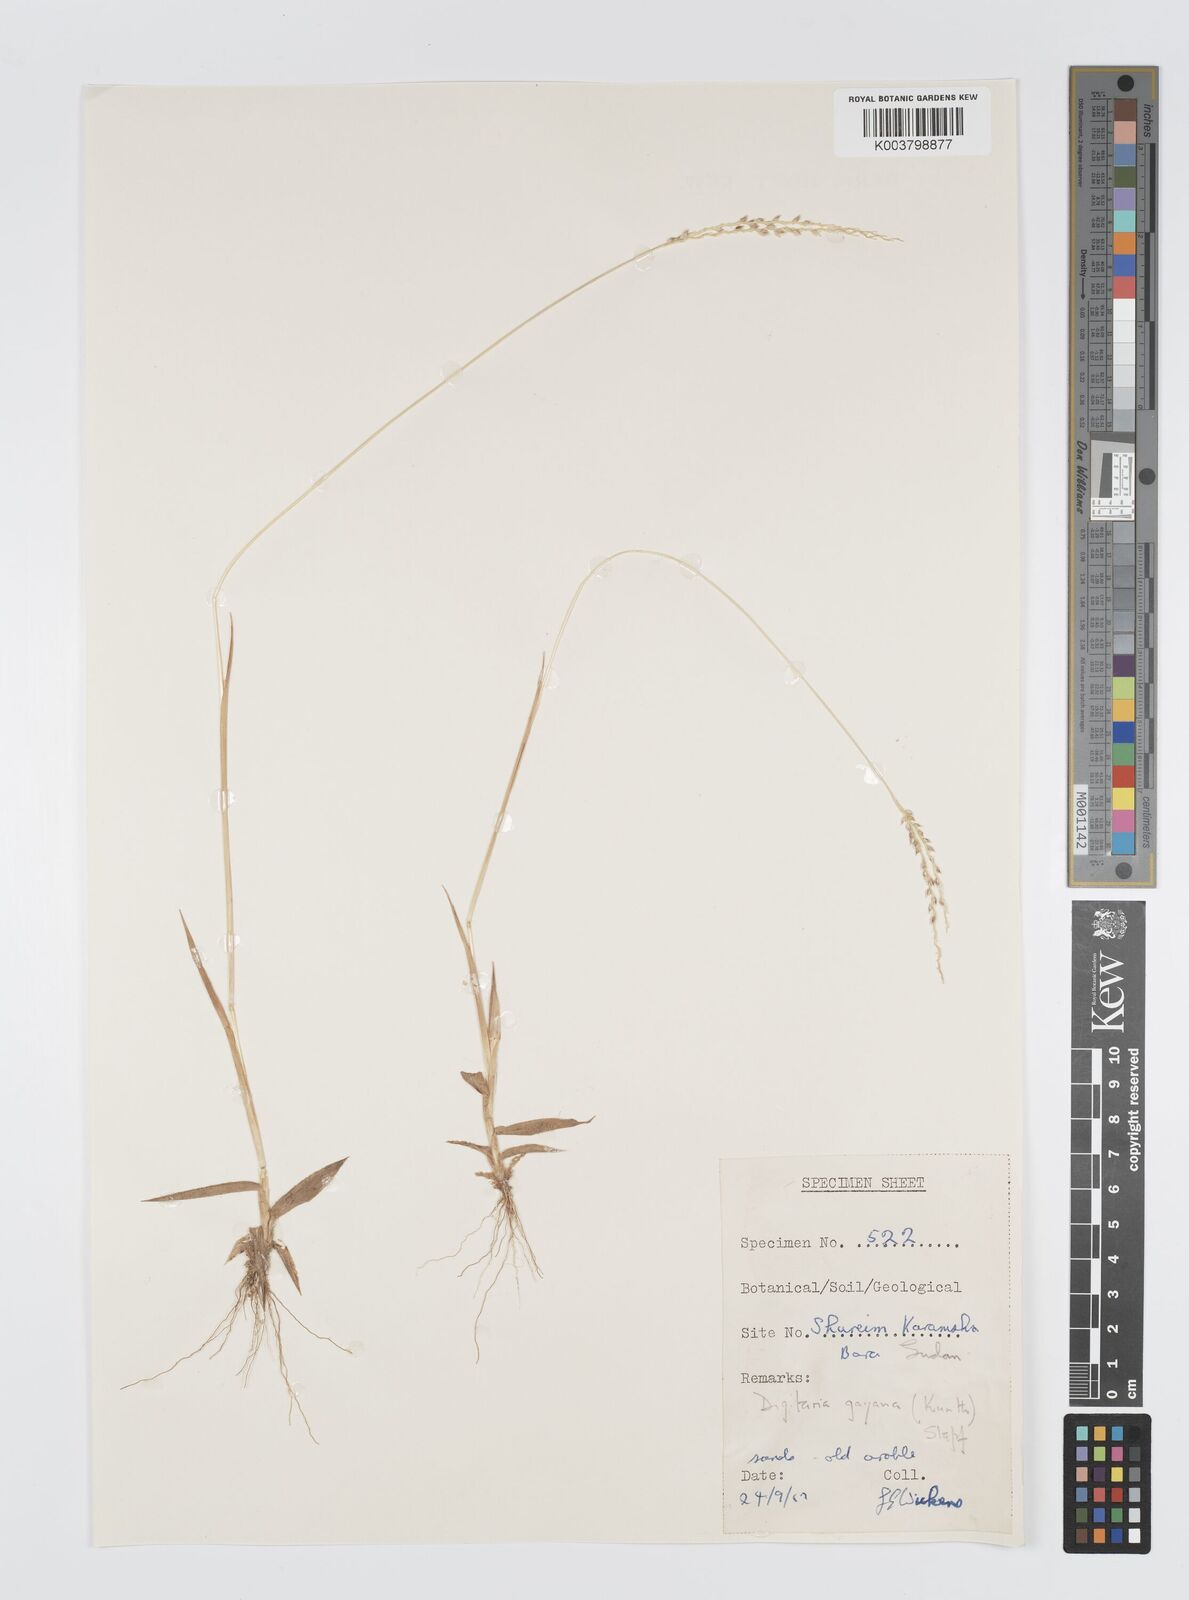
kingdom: Plantae
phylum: Tracheophyta
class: Liliopsida
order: Poales
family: Poaceae
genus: Digitaria
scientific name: Digitaria gayana
